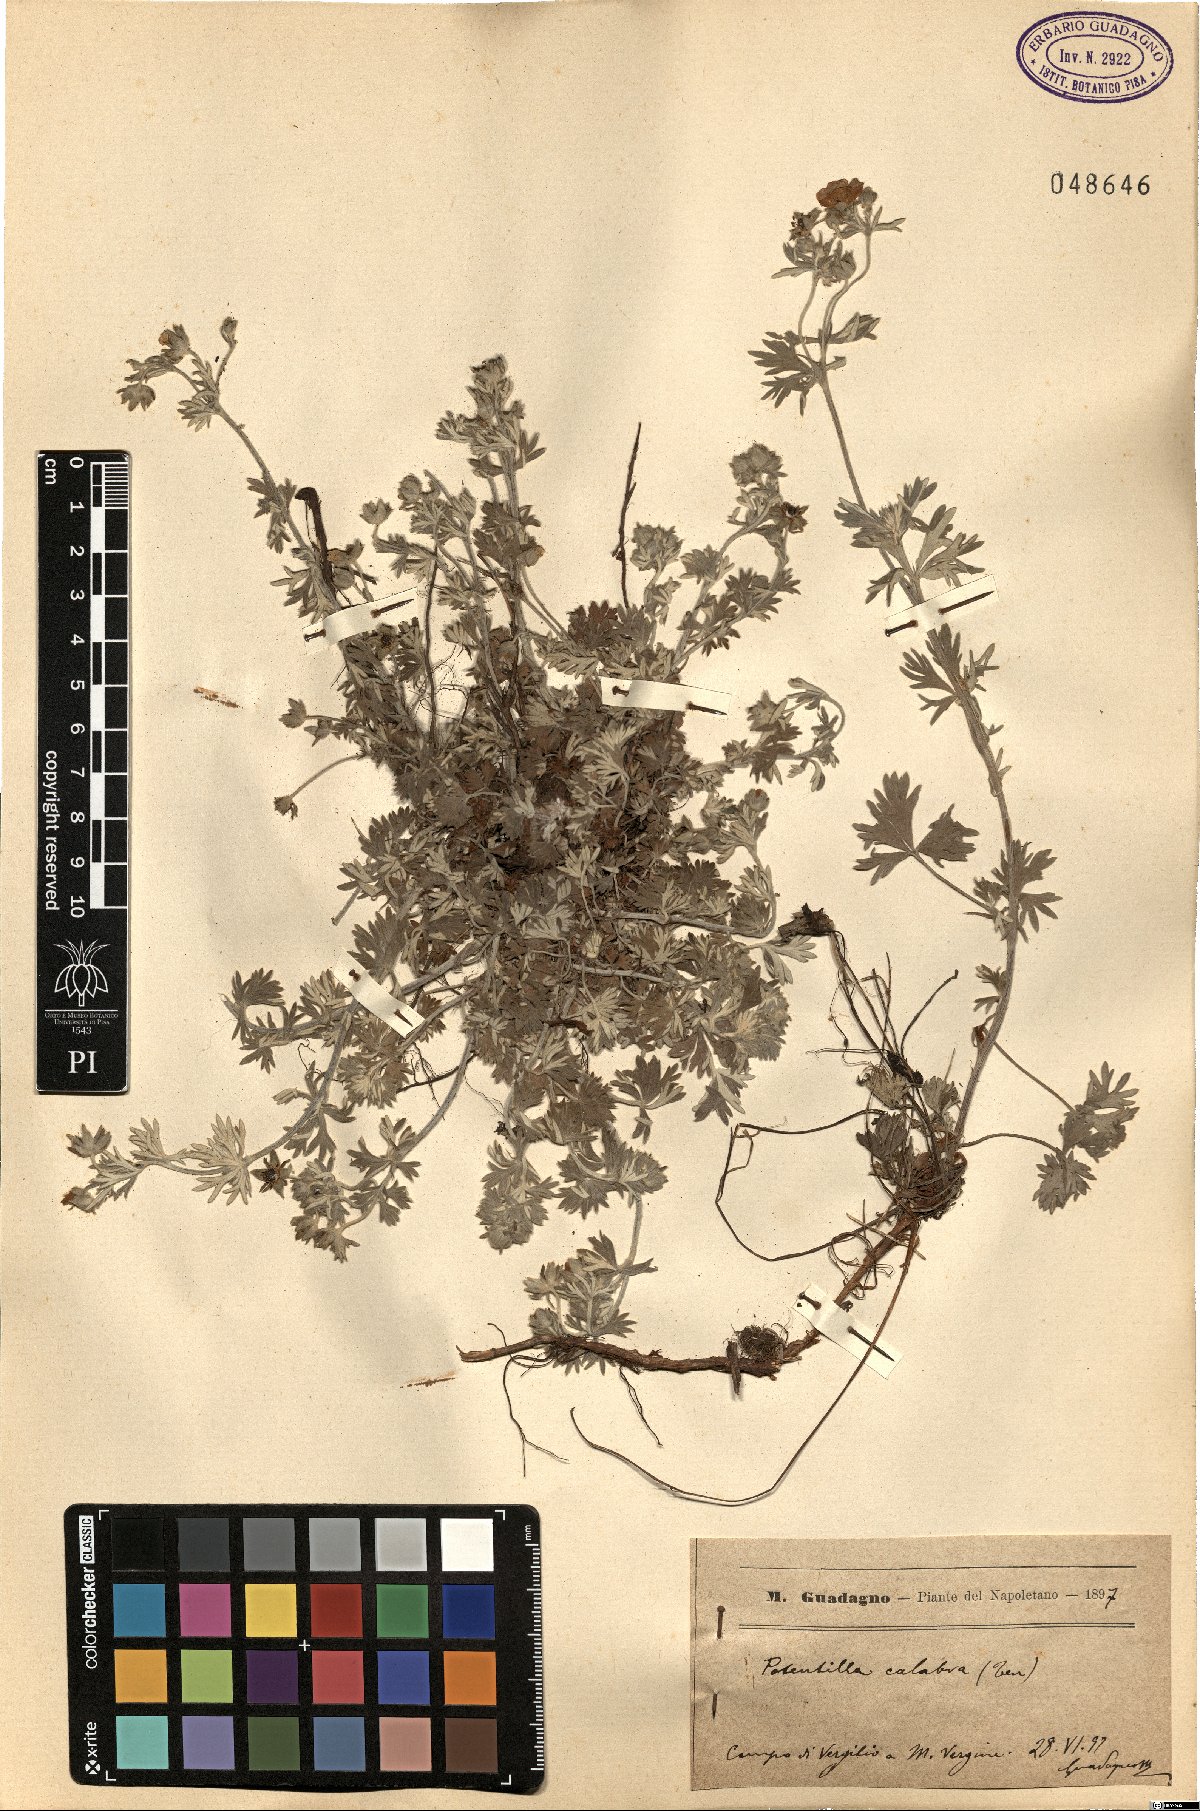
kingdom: Plantae
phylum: Tracheophyta
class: Magnoliopsida
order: Rosales
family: Rosaceae
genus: Potentilla
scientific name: Potentilla calabra
